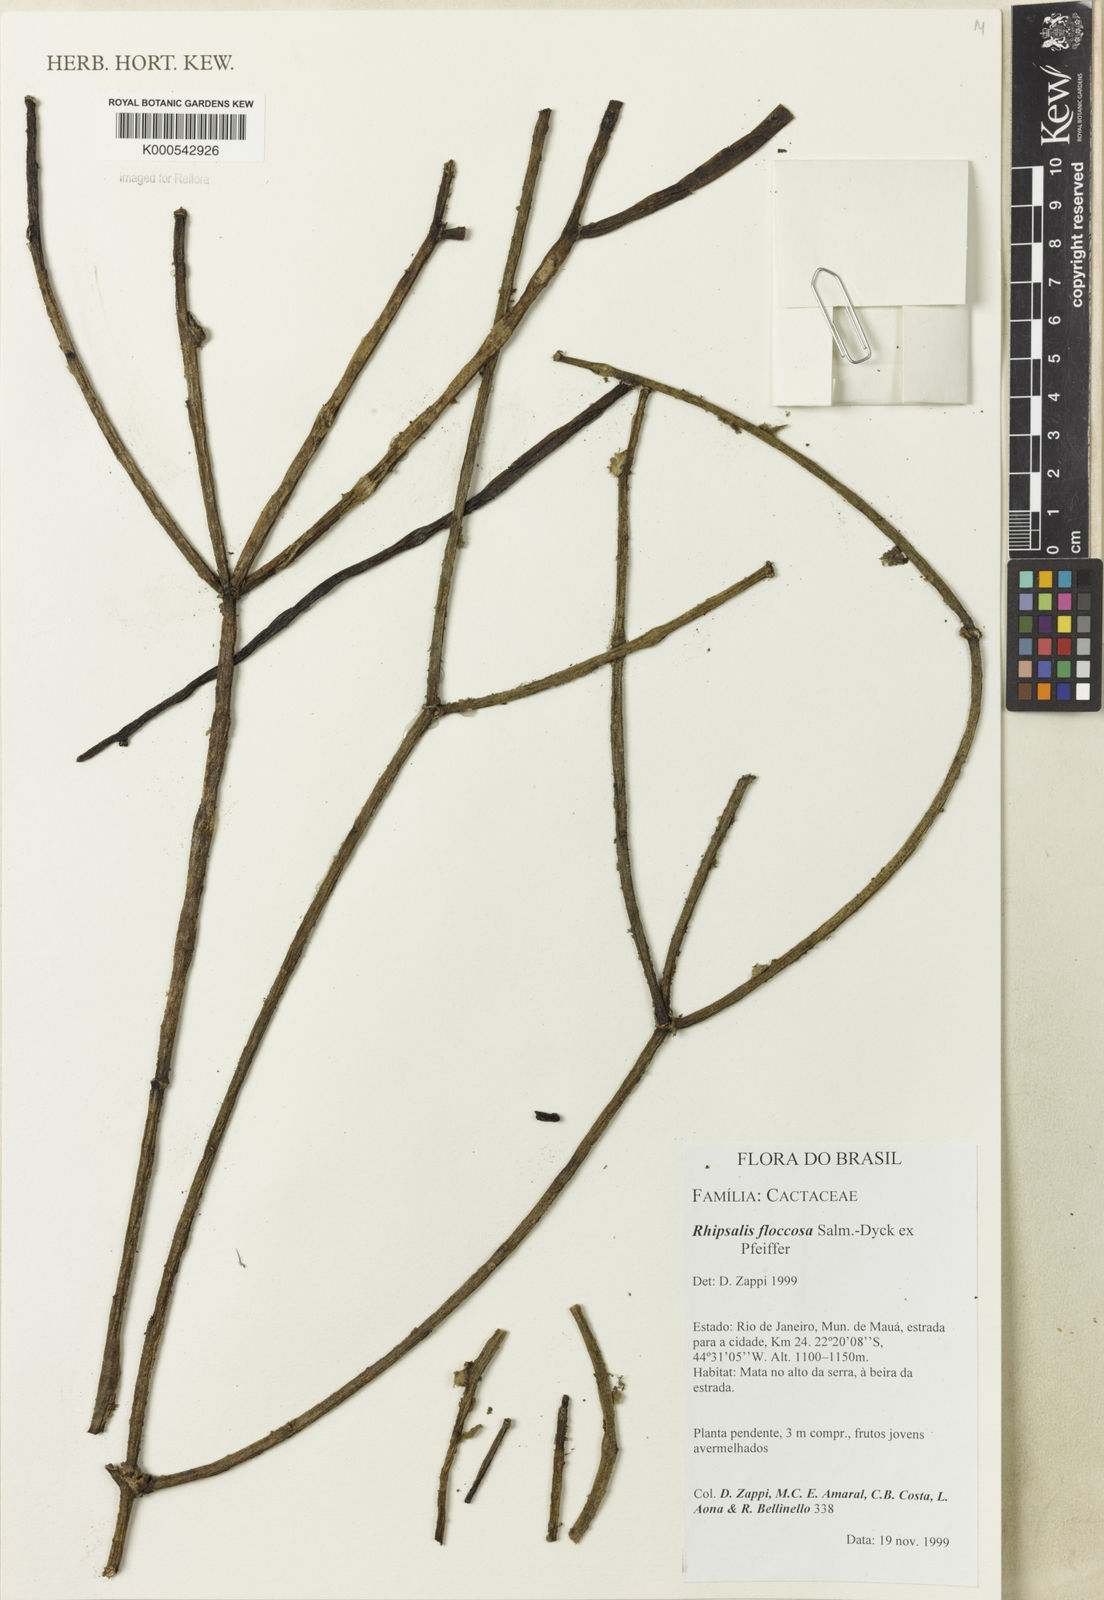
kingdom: Plantae
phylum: Tracheophyta
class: Magnoliopsida
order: Caryophyllales
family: Cactaceae
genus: Rhipsalis
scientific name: Rhipsalis floccosa
